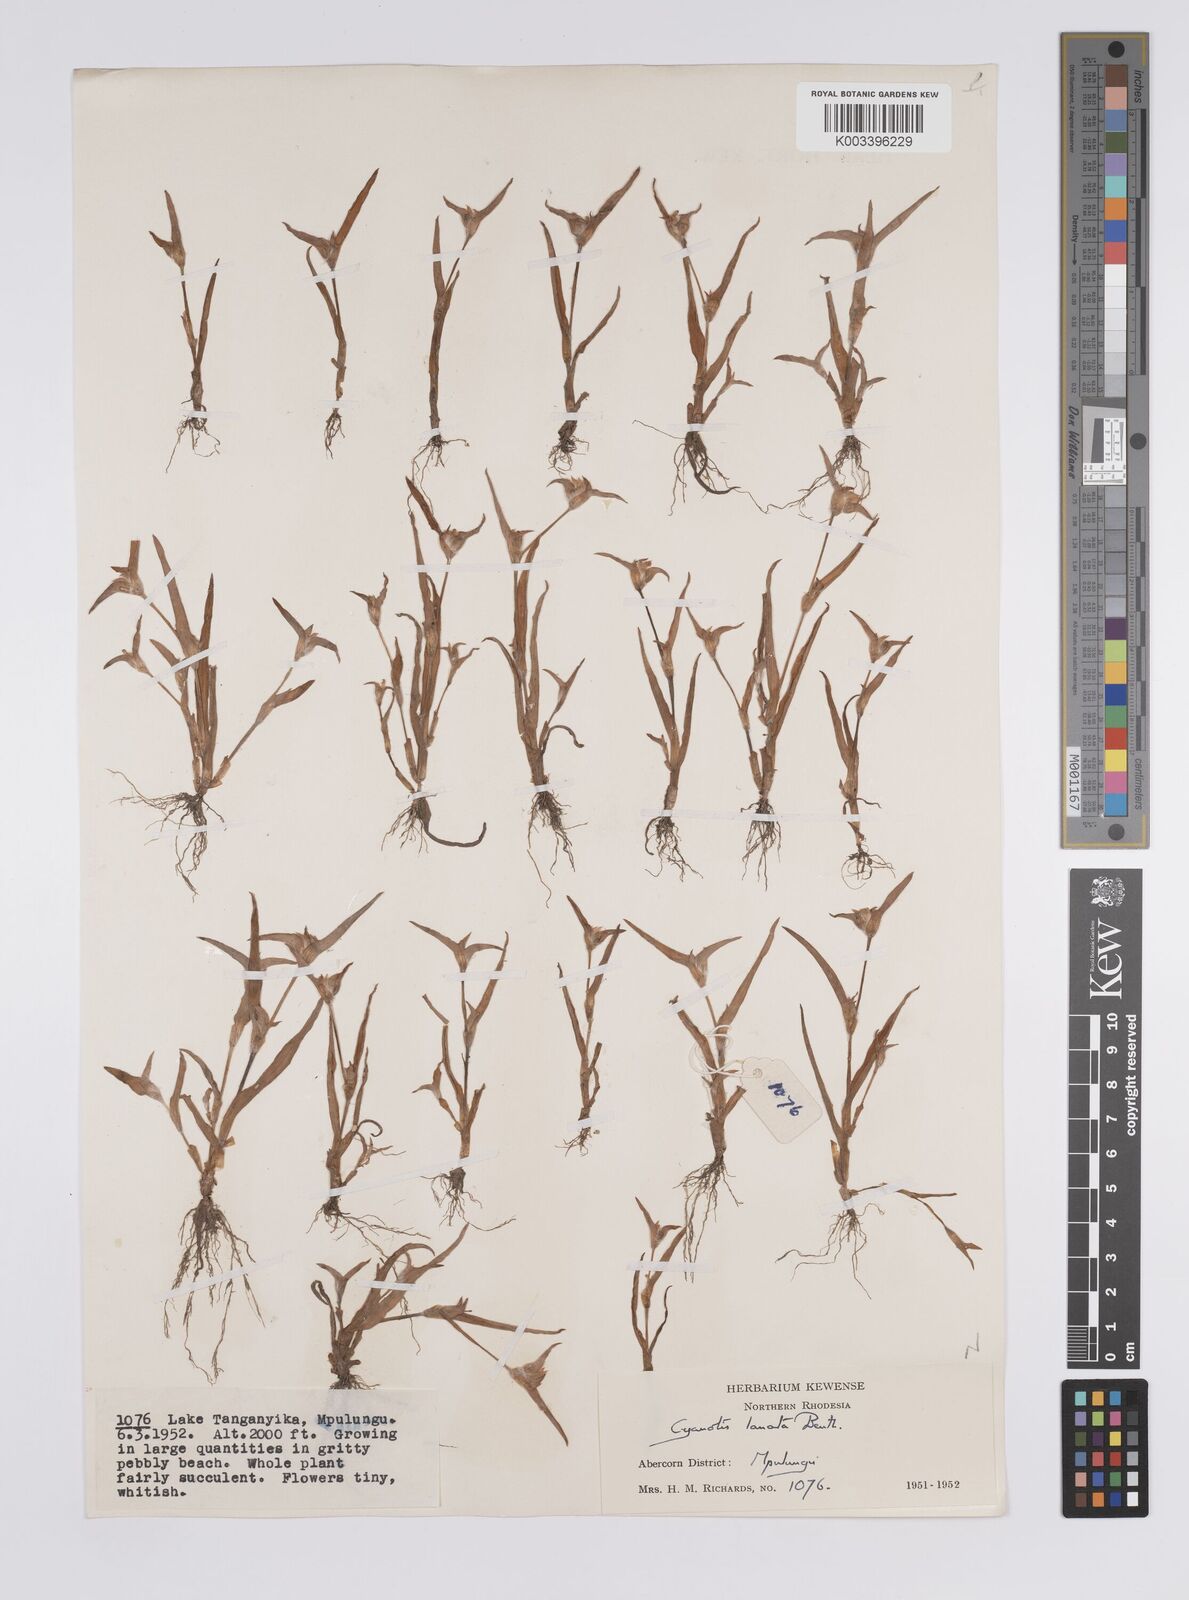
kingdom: Plantae
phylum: Tracheophyta
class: Liliopsida
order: Commelinales
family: Commelinaceae
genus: Cyanotis
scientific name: Cyanotis lanata
